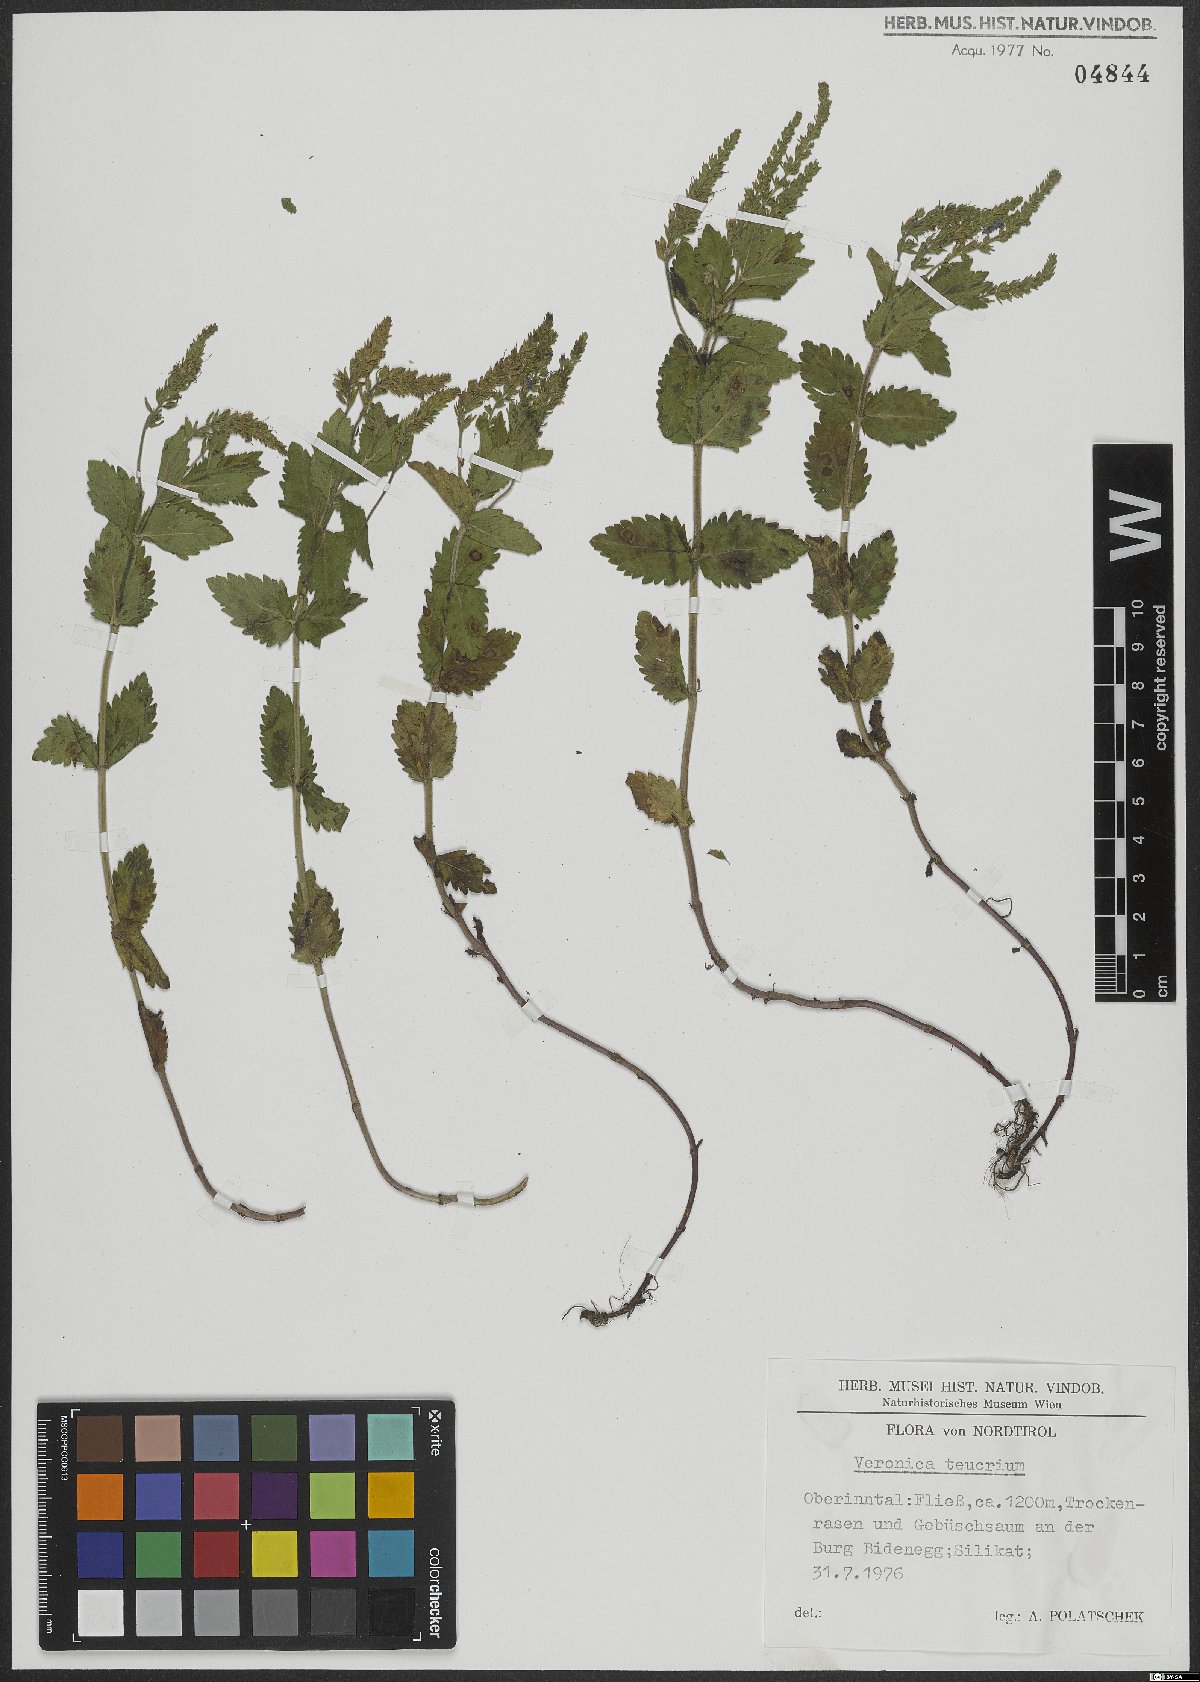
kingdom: Plantae
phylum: Tracheophyta
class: Magnoliopsida
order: Lamiales
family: Plantaginaceae
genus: Veronica
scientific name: Veronica teucrium
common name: Large speedwell
